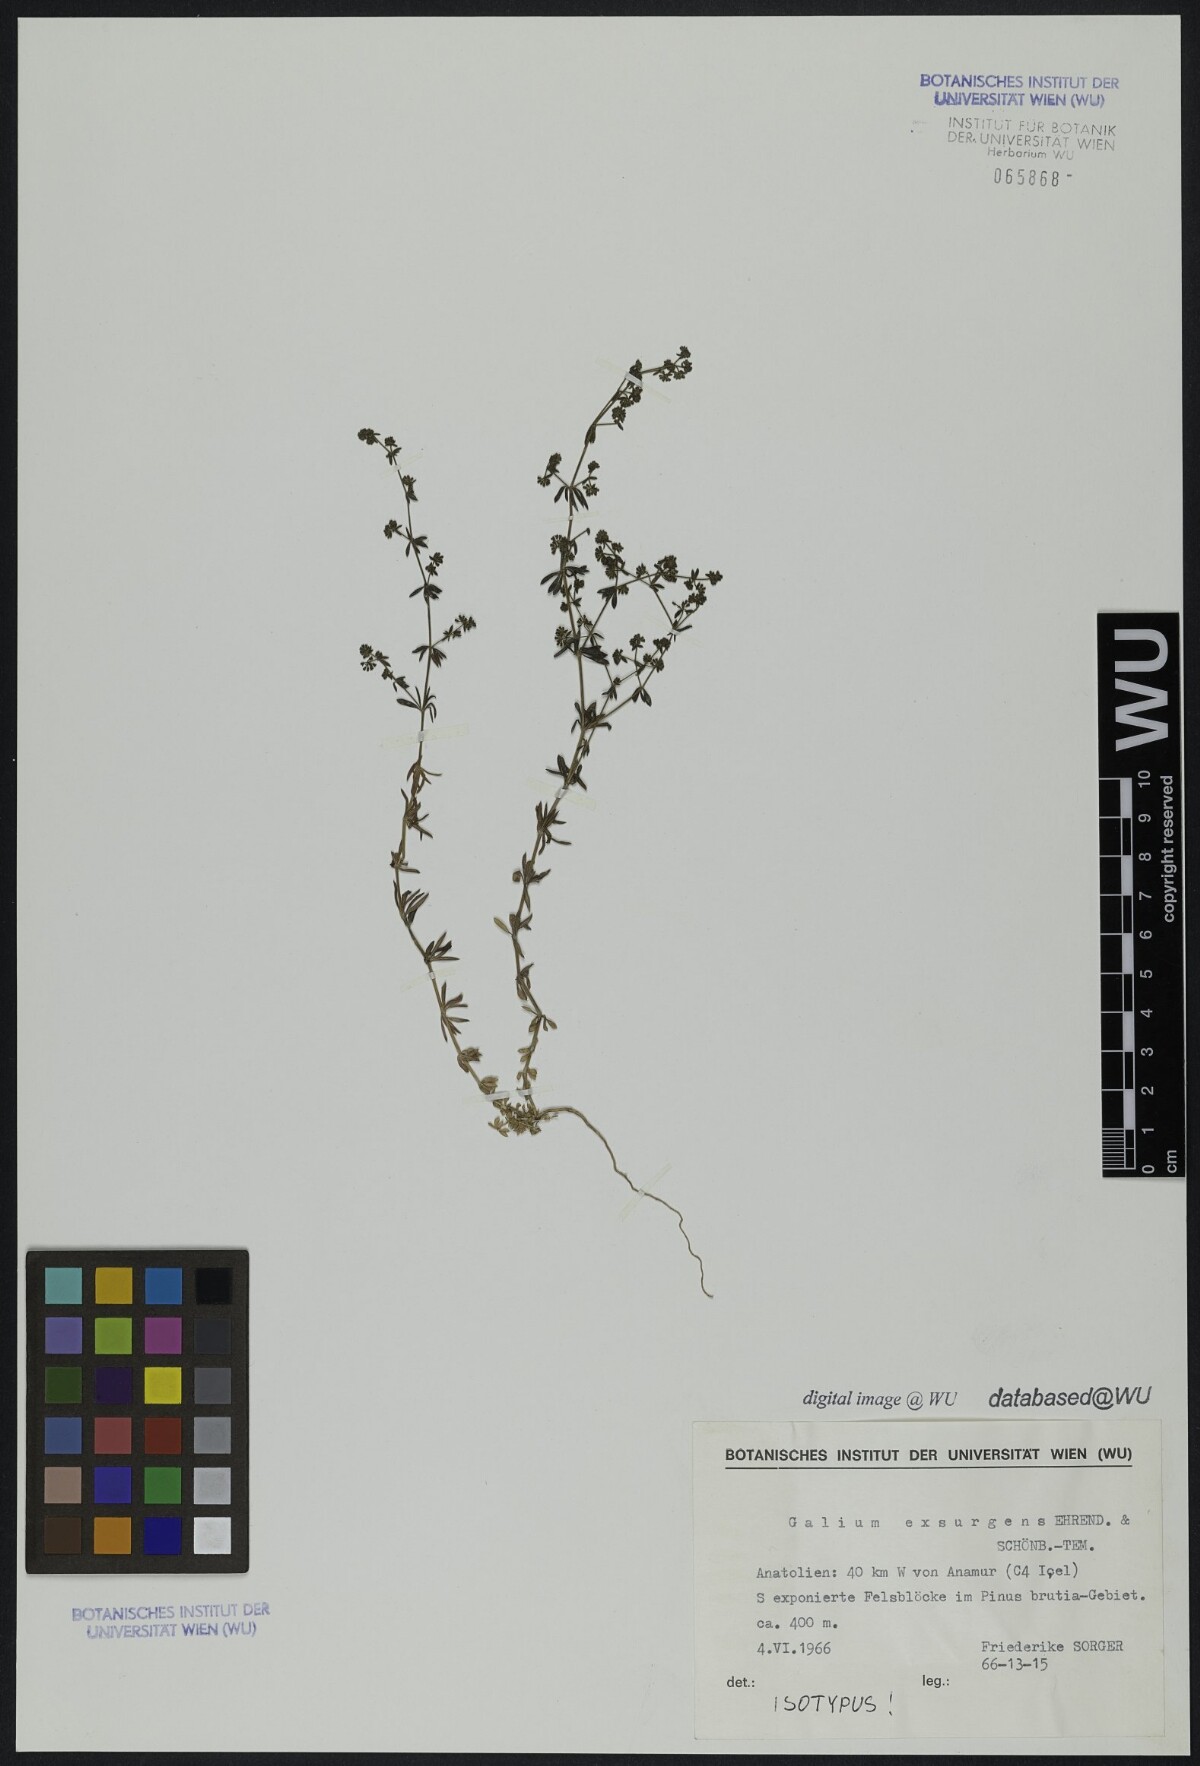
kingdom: Plantae
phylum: Tracheophyta
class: Magnoliopsida
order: Gentianales
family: Rubiaceae
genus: Galium
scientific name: Galium exsurgens
